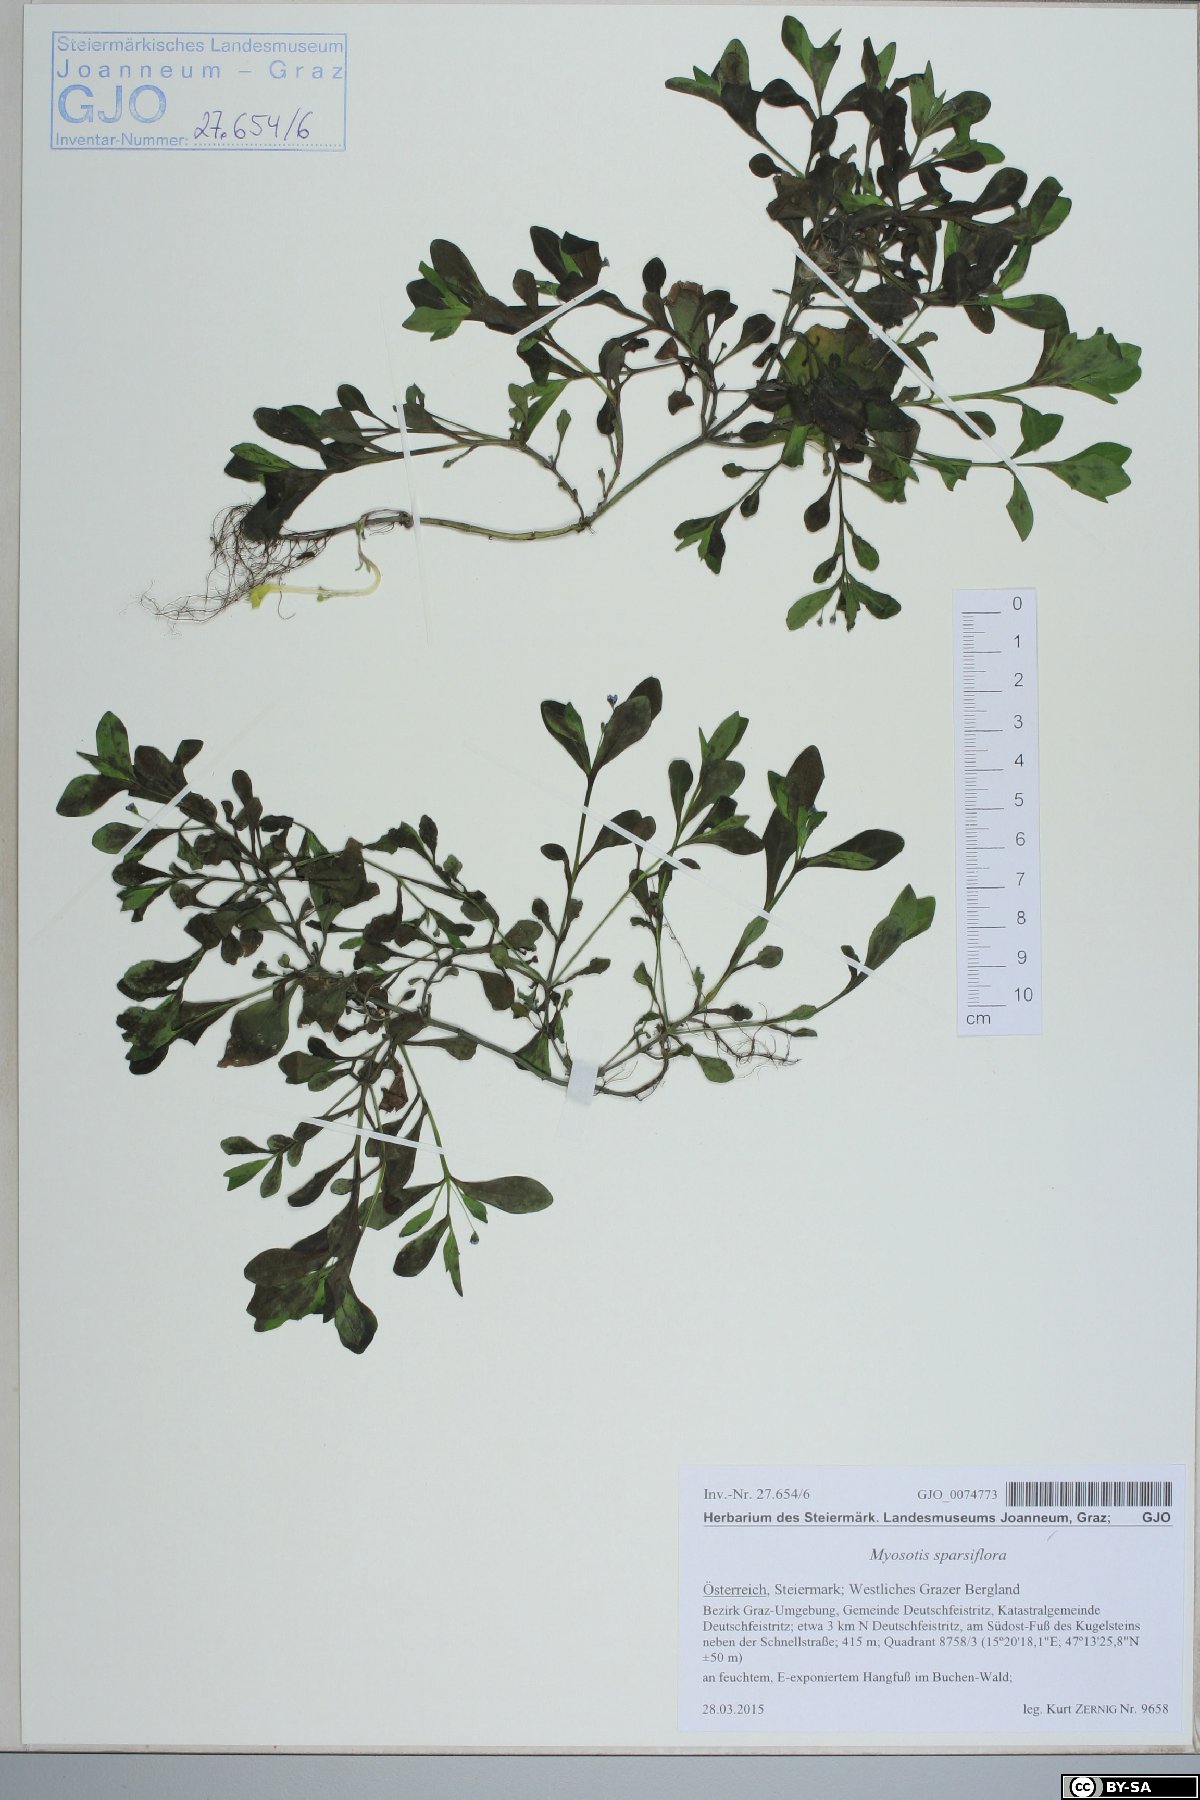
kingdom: Plantae
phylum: Tracheophyta
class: Magnoliopsida
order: Boraginales
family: Boraginaceae
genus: Myosotis
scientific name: Myosotis sparsiflora
